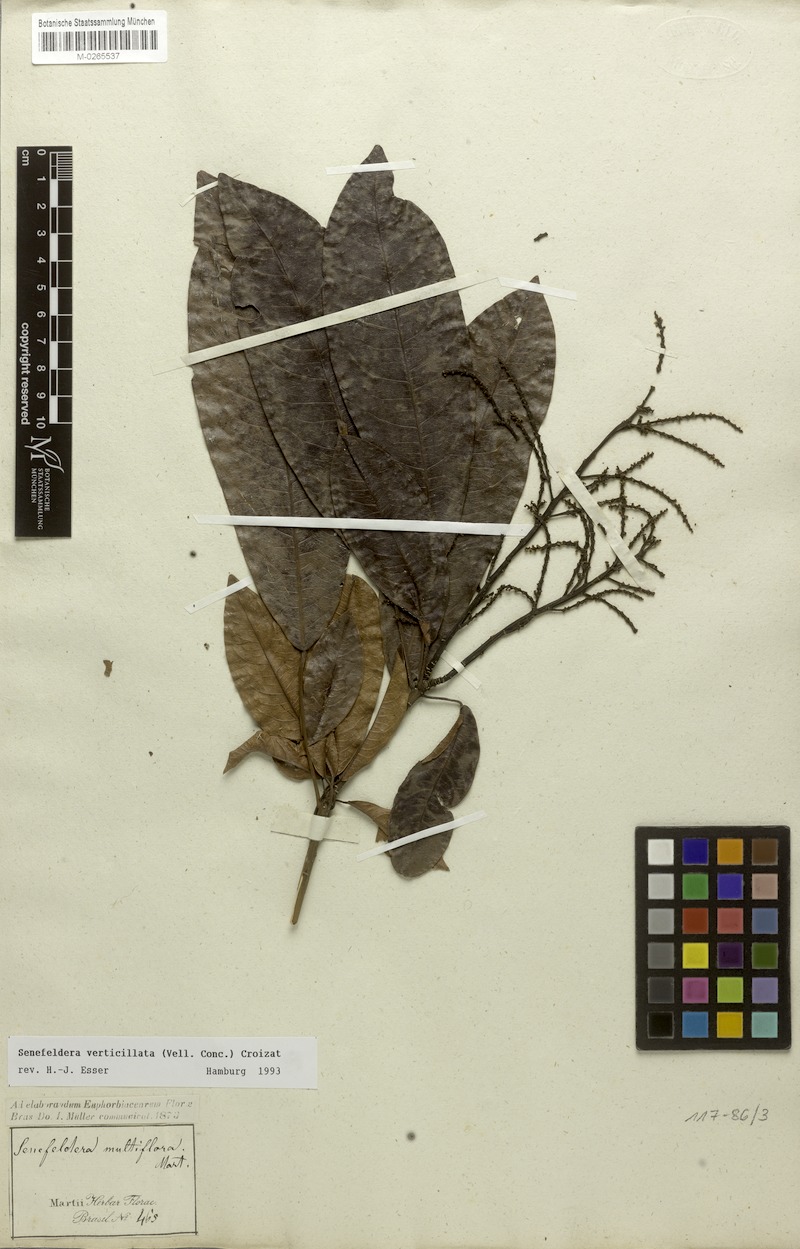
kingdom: Plantae
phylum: Tracheophyta
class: Magnoliopsida
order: Malpighiales
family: Euphorbiaceae
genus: Senefeldera
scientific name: Senefeldera verticillata
